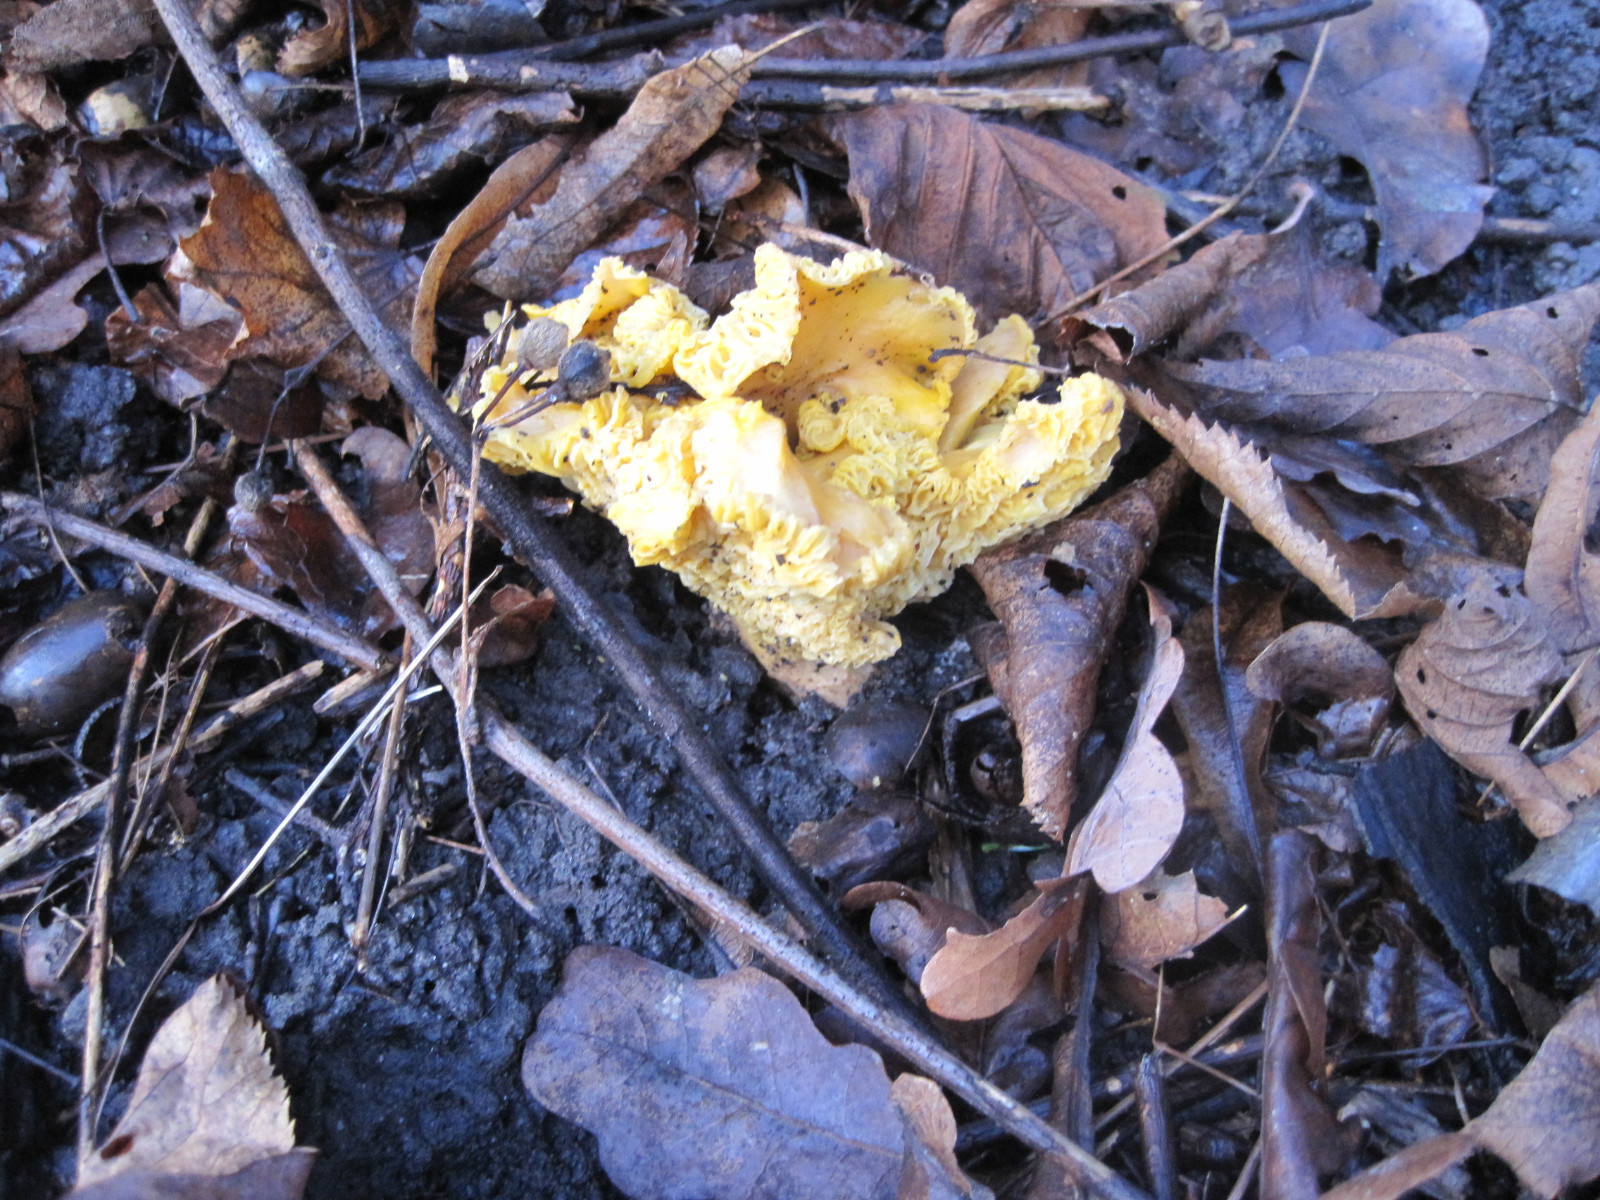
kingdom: Fungi
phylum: Basidiomycota
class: Agaricomycetes
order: Cantharellales
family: Hydnaceae
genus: Cantharellus
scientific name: Cantharellus pallens
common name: bleg kantarel
